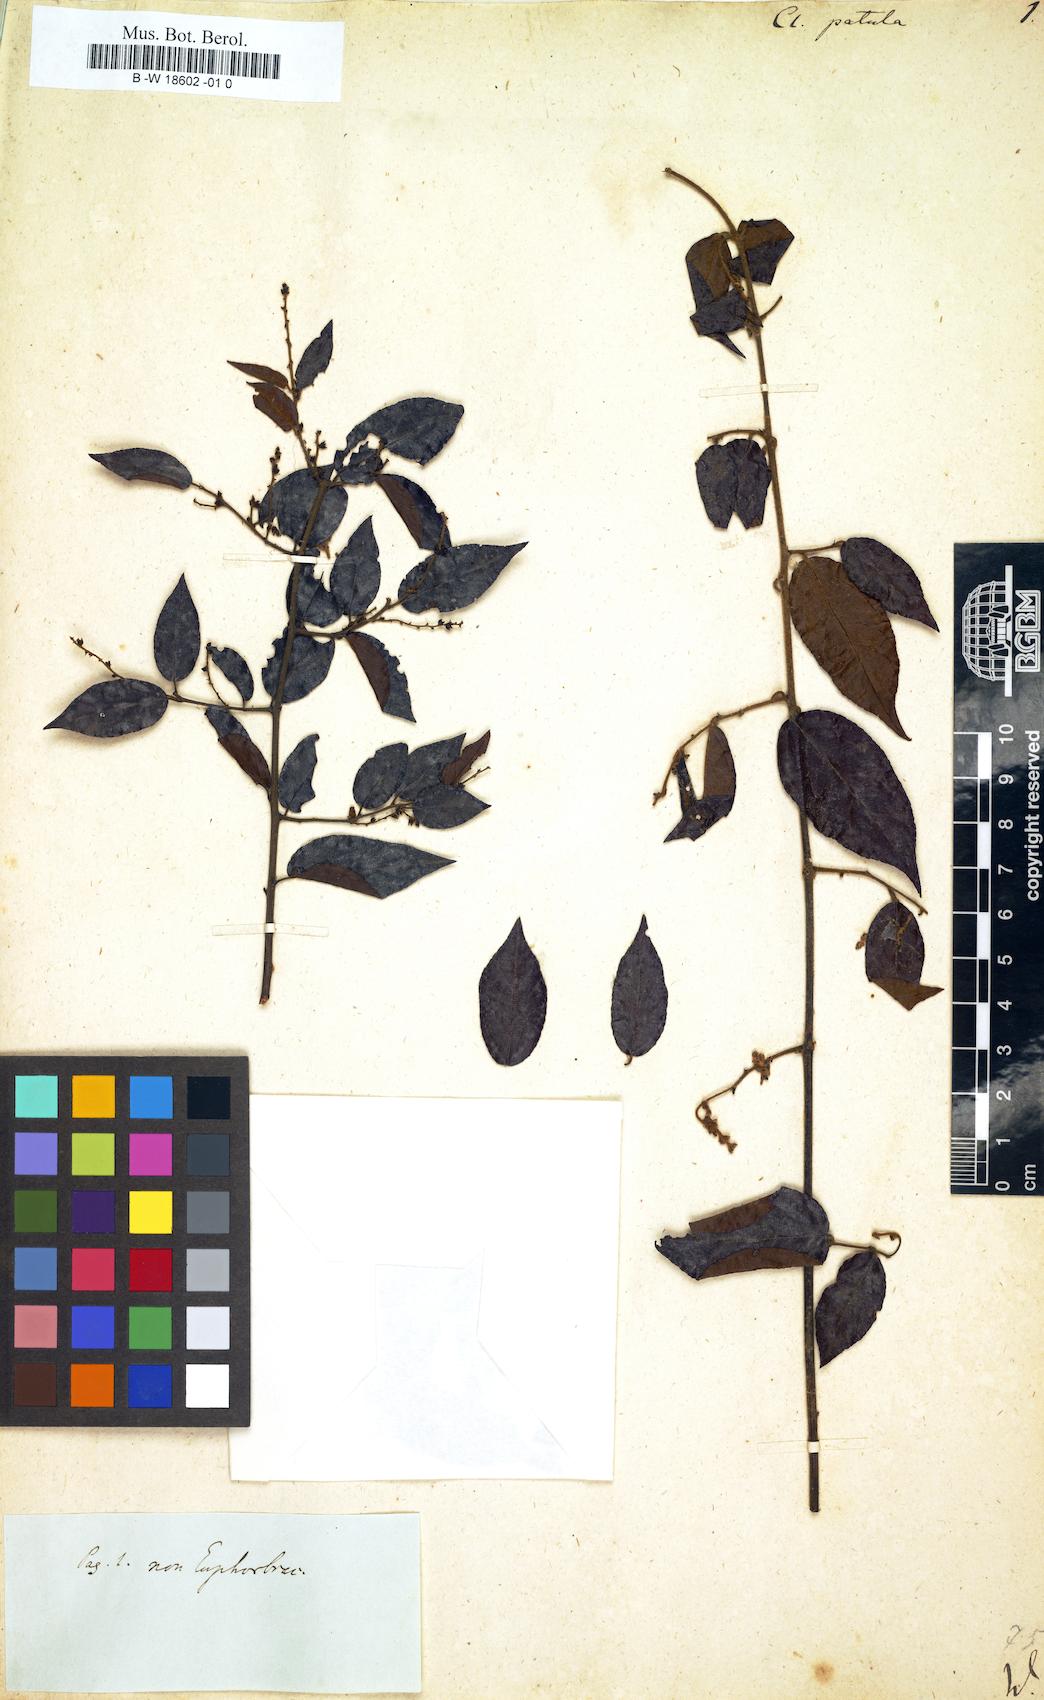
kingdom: Plantae
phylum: Tracheophyta
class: Magnoliopsida
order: Malpighiales
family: Peraceae
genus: Clutia
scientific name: Clutia
